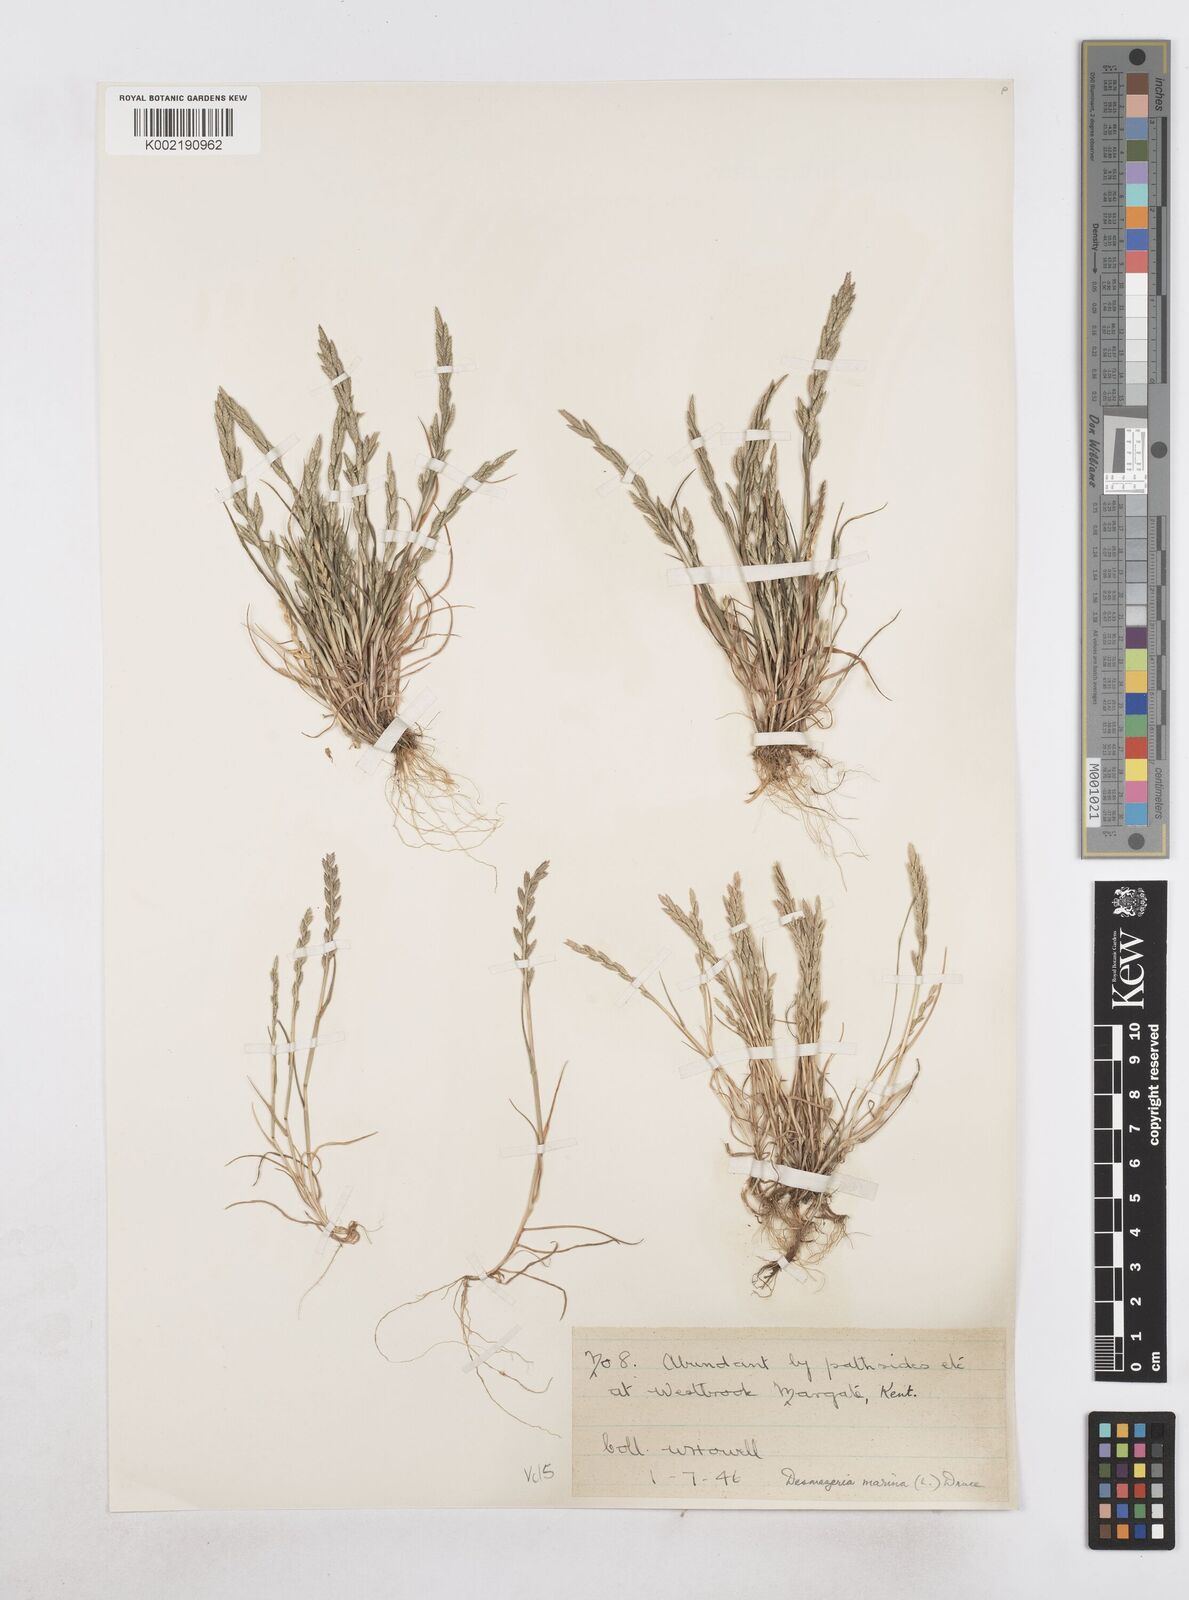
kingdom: Plantae
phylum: Tracheophyta
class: Liliopsida
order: Poales
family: Poaceae
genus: Catapodium
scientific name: Catapodium marinum
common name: Sea fern-grass
